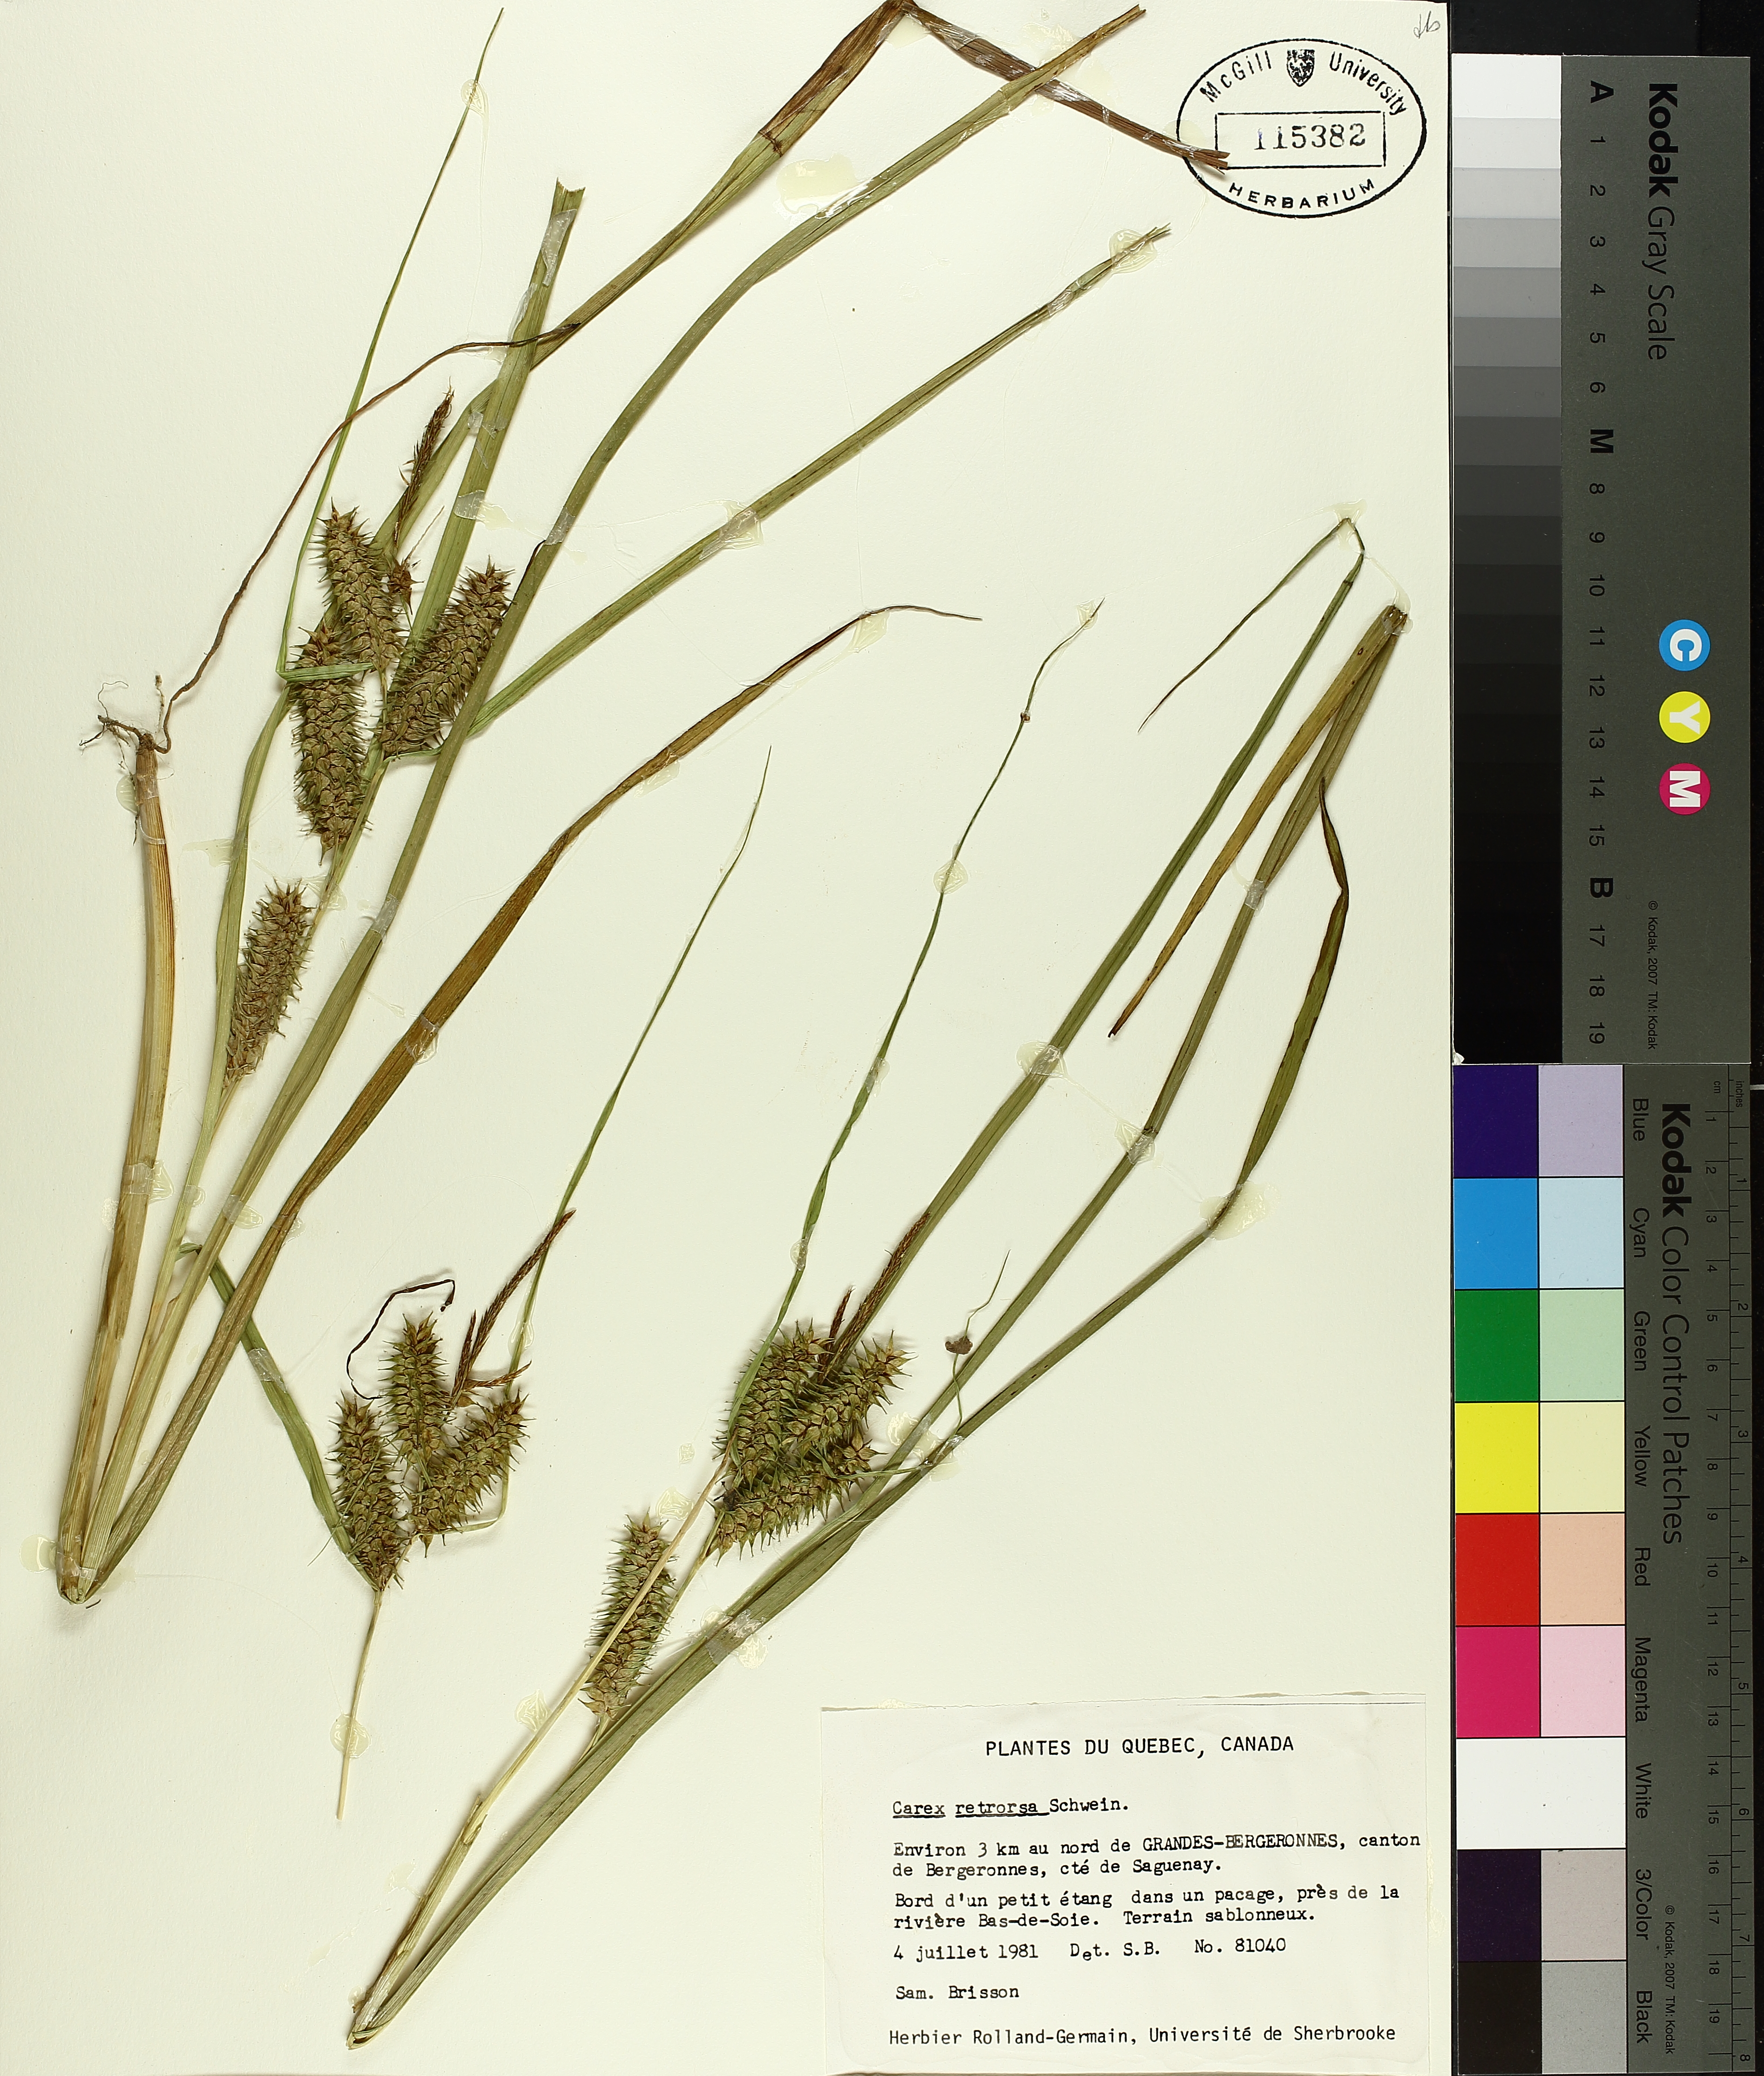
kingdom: Plantae
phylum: Tracheophyta
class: Liliopsida
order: Poales
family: Cyperaceae
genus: Carex
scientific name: Carex retrorsa
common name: Knot-sheath sedge
